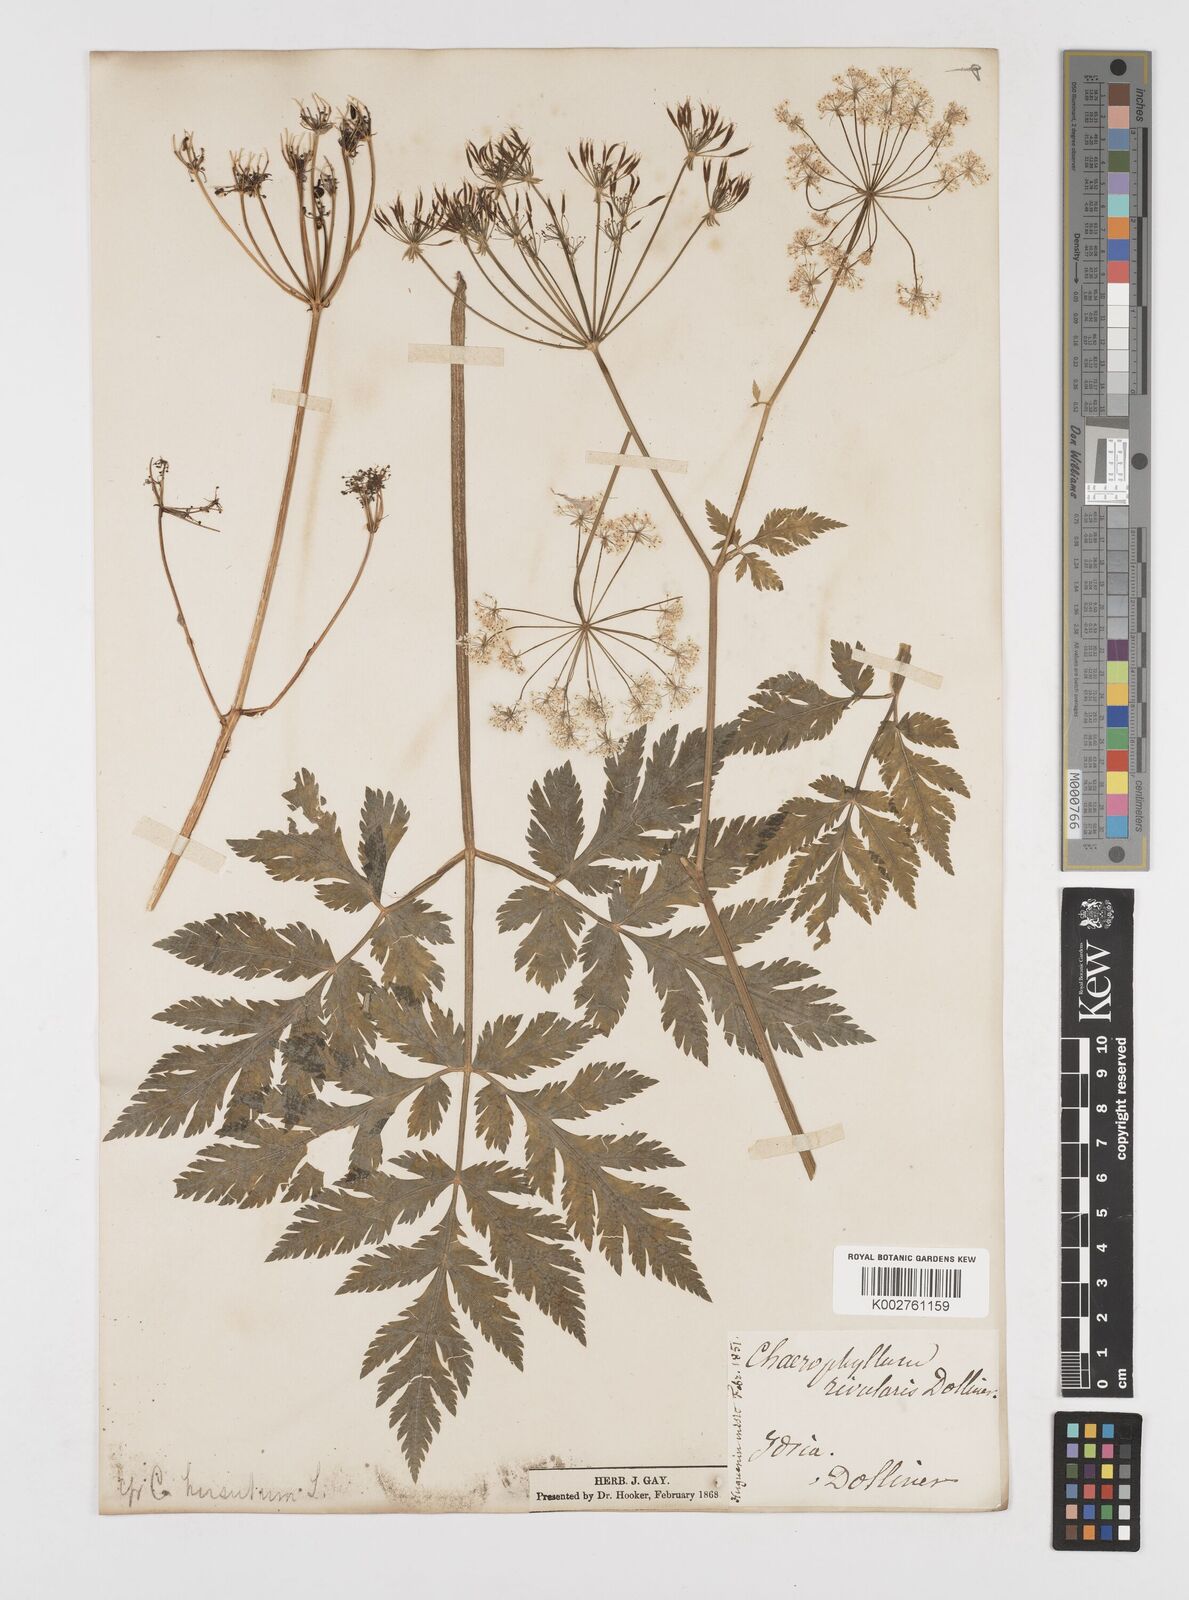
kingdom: Plantae
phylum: Tracheophyta
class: Magnoliopsida
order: Apiales
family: Apiaceae
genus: Chaerophyllum
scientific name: Chaerophyllum hirsutum
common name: Hairy chervil
